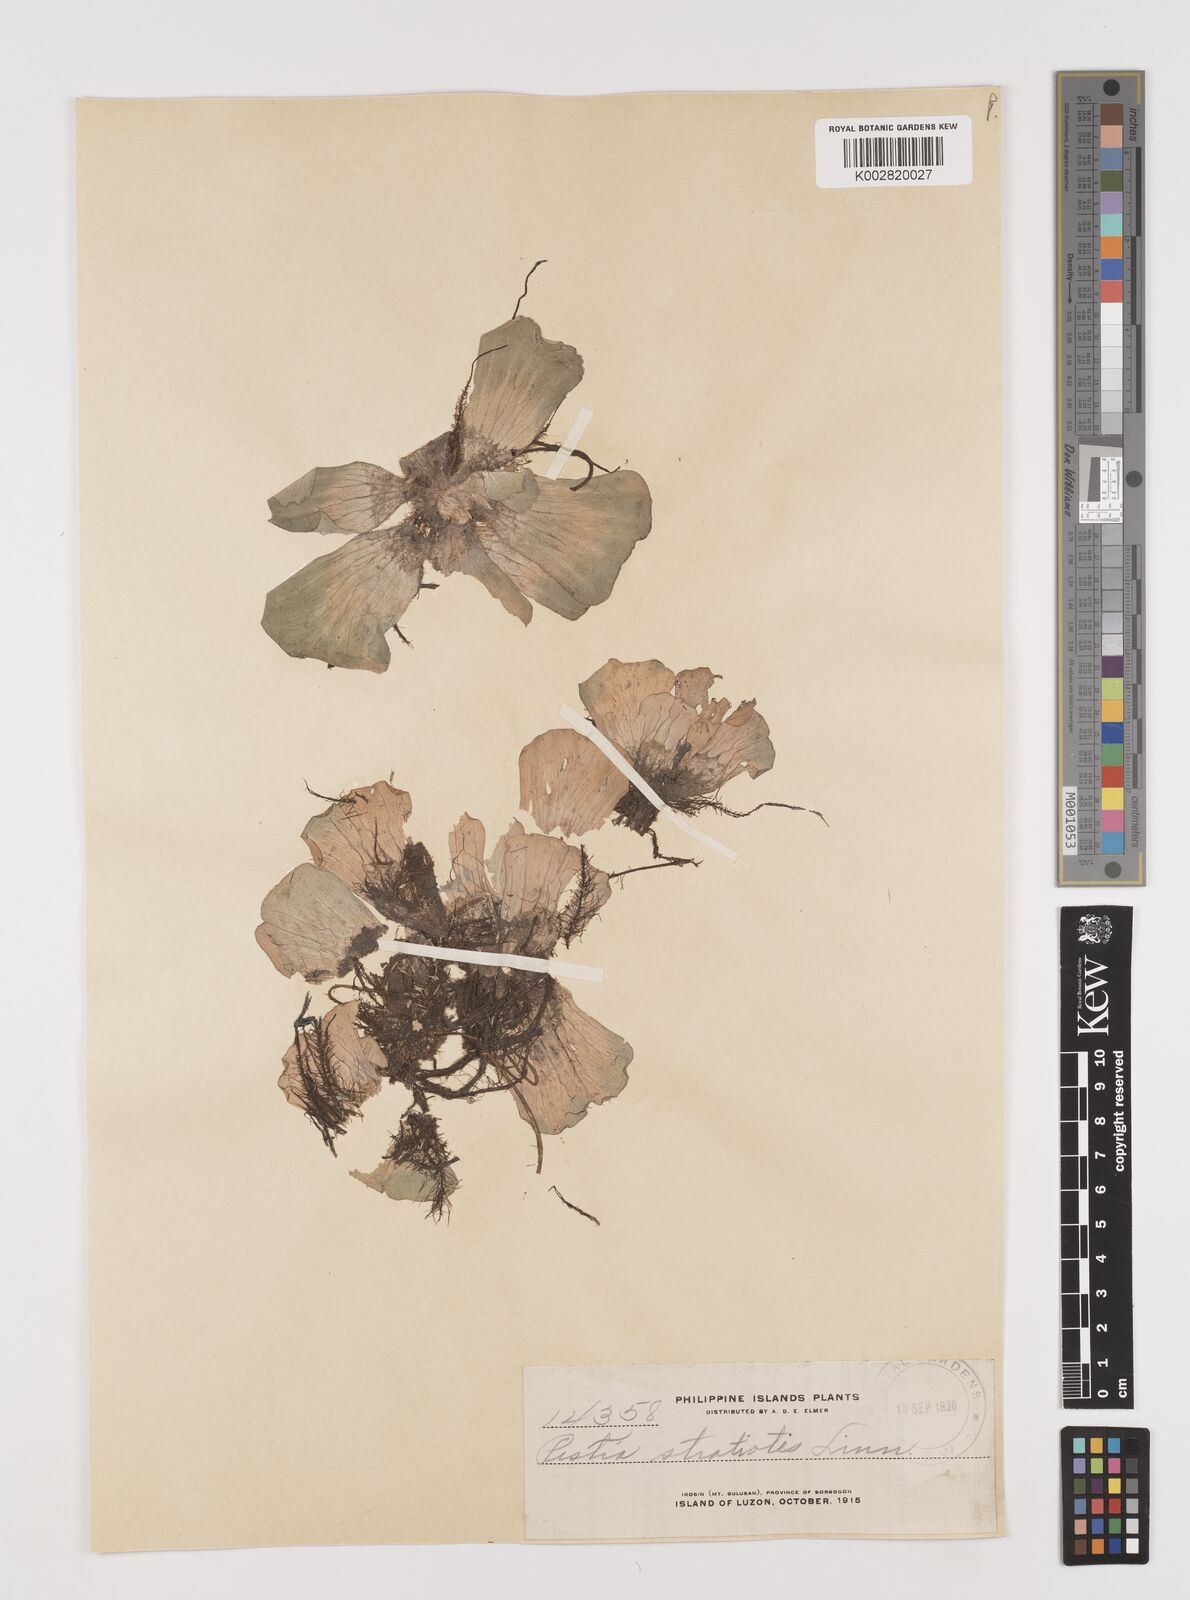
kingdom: Plantae
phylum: Tracheophyta
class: Liliopsida
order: Alismatales
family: Araceae
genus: Pistia
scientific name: Pistia stratiotes
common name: Water lettuce
